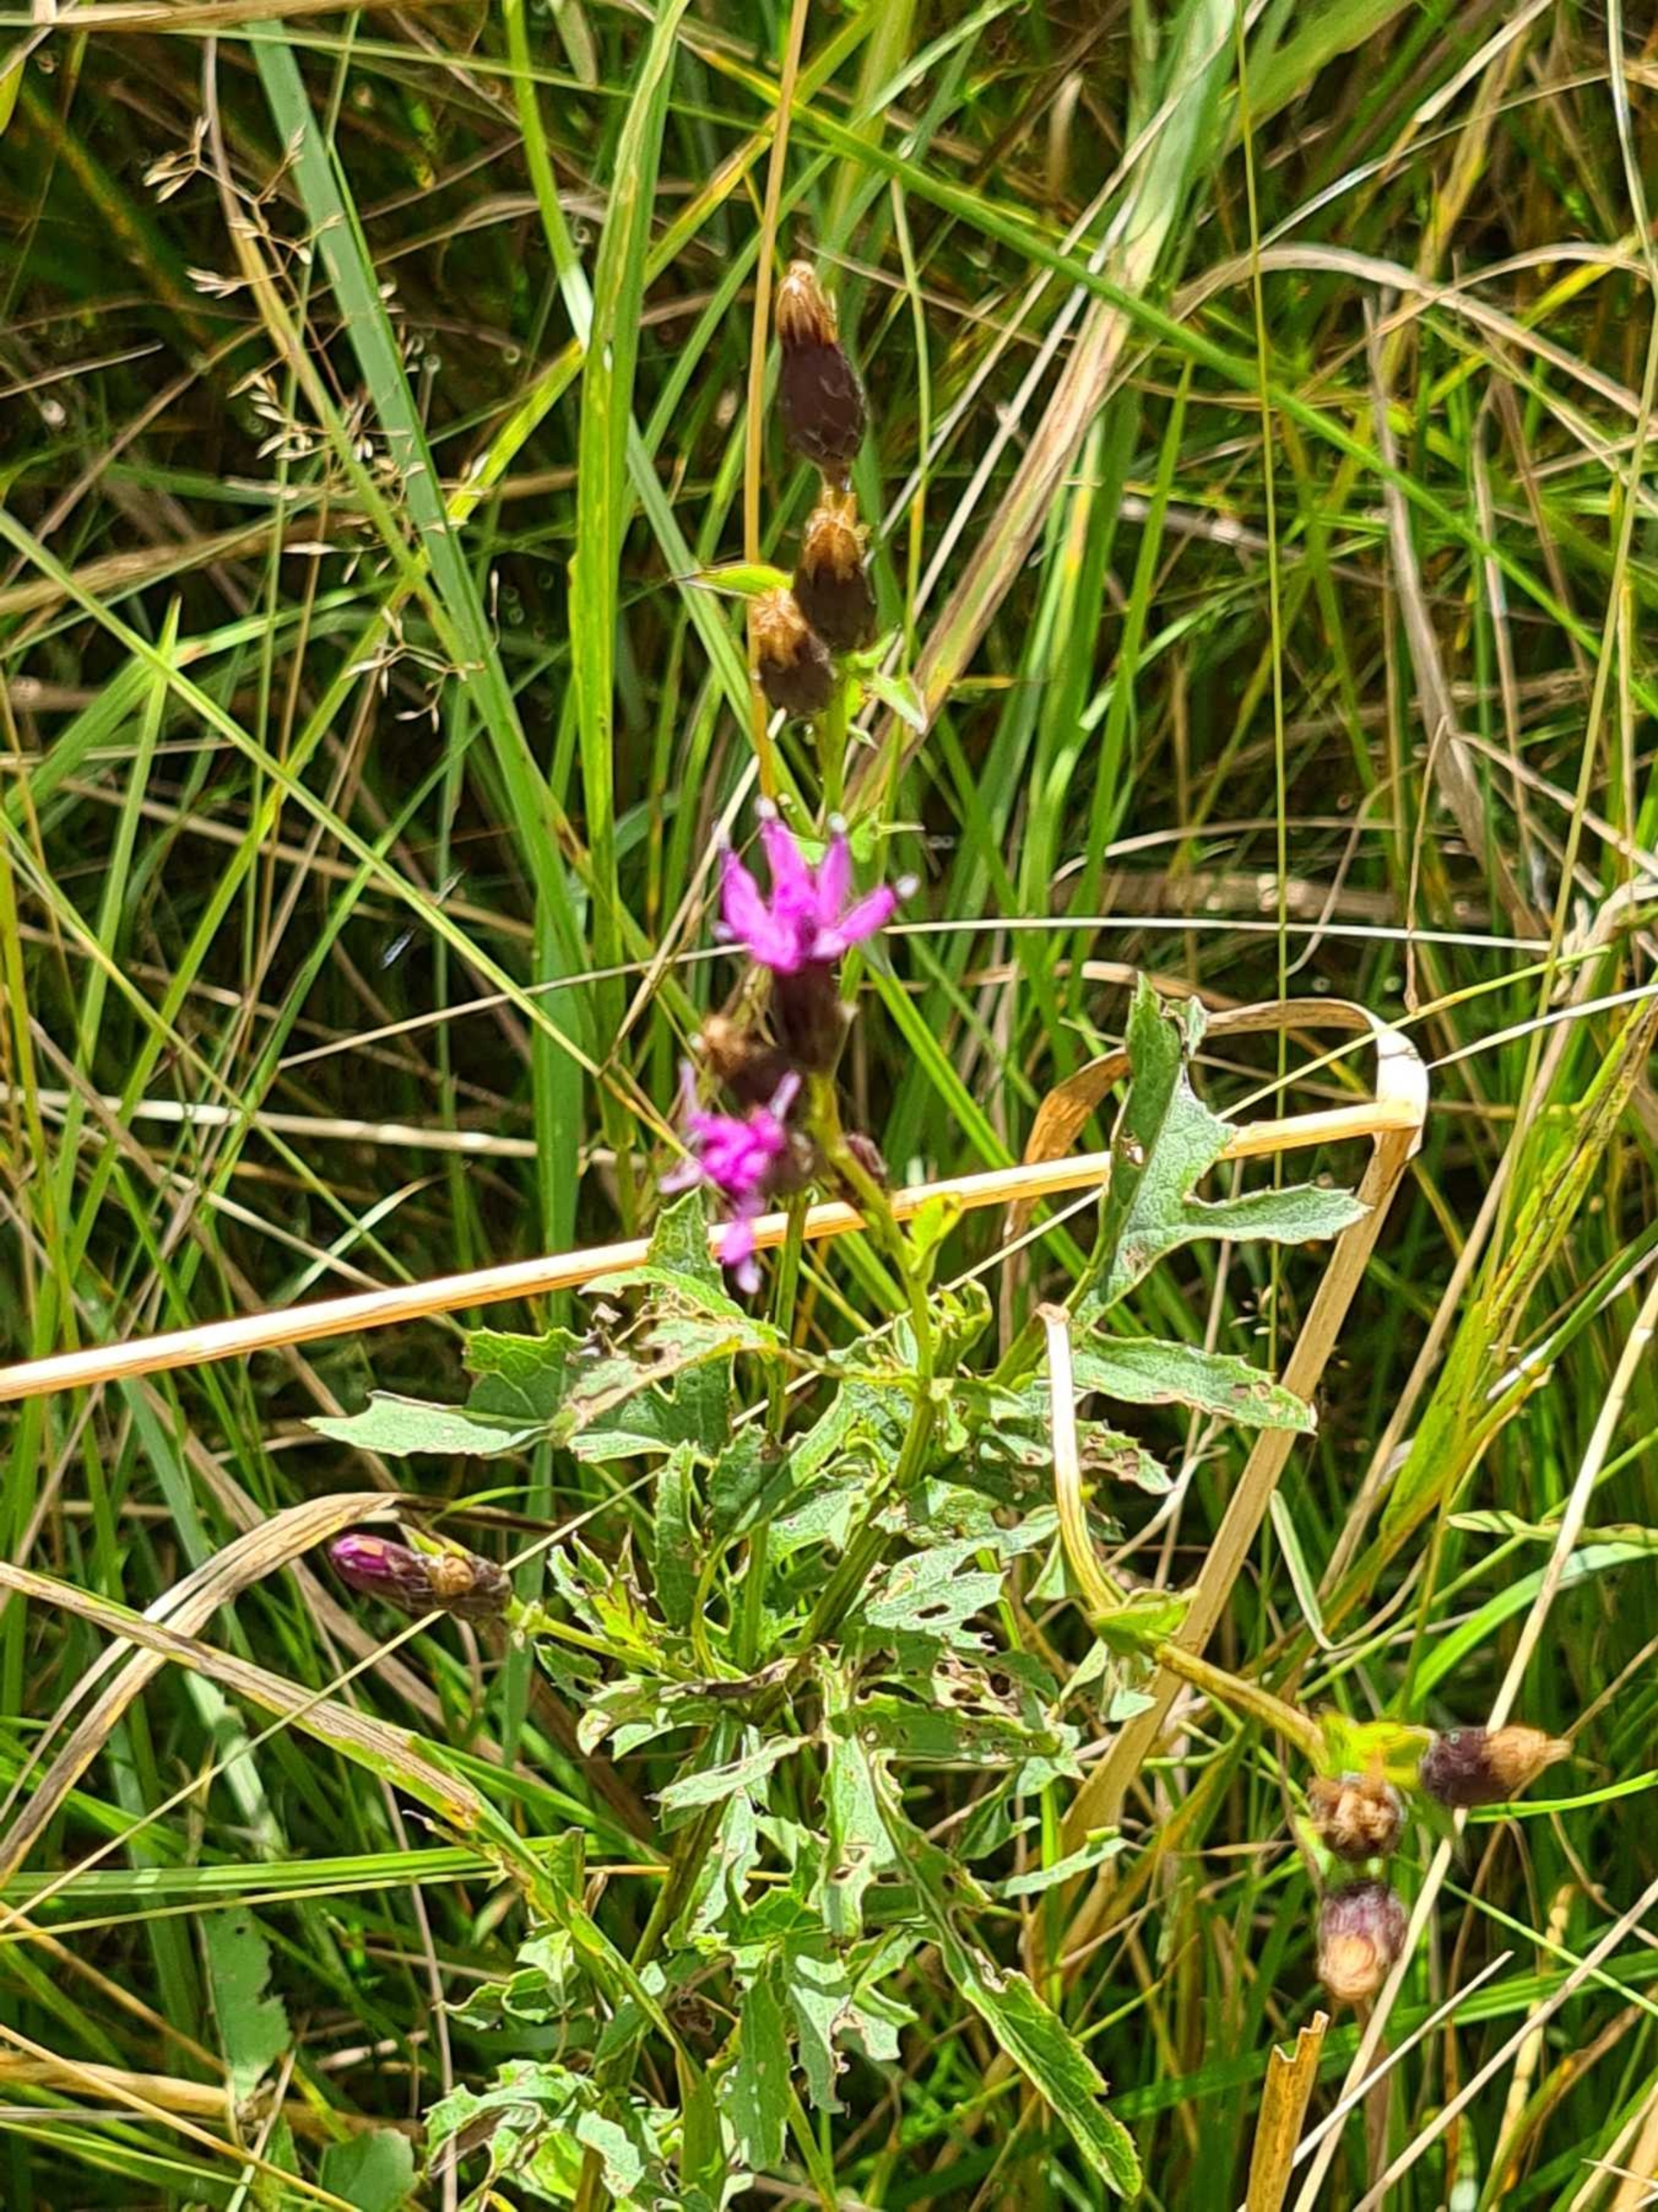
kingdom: Plantae
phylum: Tracheophyta
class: Magnoliopsida
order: Asterales
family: Asteraceae
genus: Serratula
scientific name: Serratula tinctoria
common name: Eng-skær
